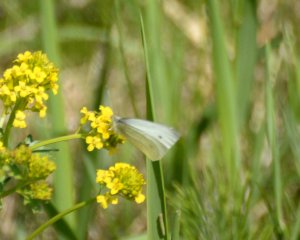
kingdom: Animalia
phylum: Arthropoda
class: Insecta
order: Lepidoptera
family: Pieridae
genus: Pieris
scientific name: Pieris rapae
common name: Cabbage White
